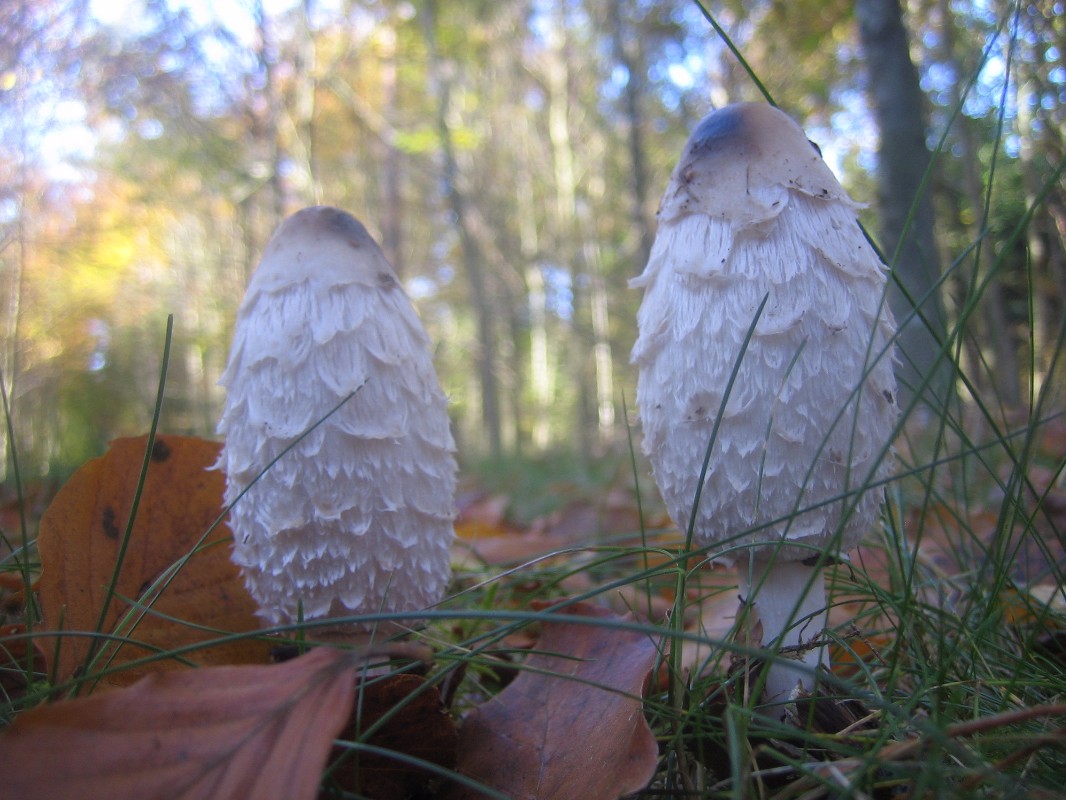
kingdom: Fungi
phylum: Basidiomycota
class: Agaricomycetes
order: Agaricales
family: Agaricaceae
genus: Coprinus
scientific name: Coprinus comatus
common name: stor parykhat
